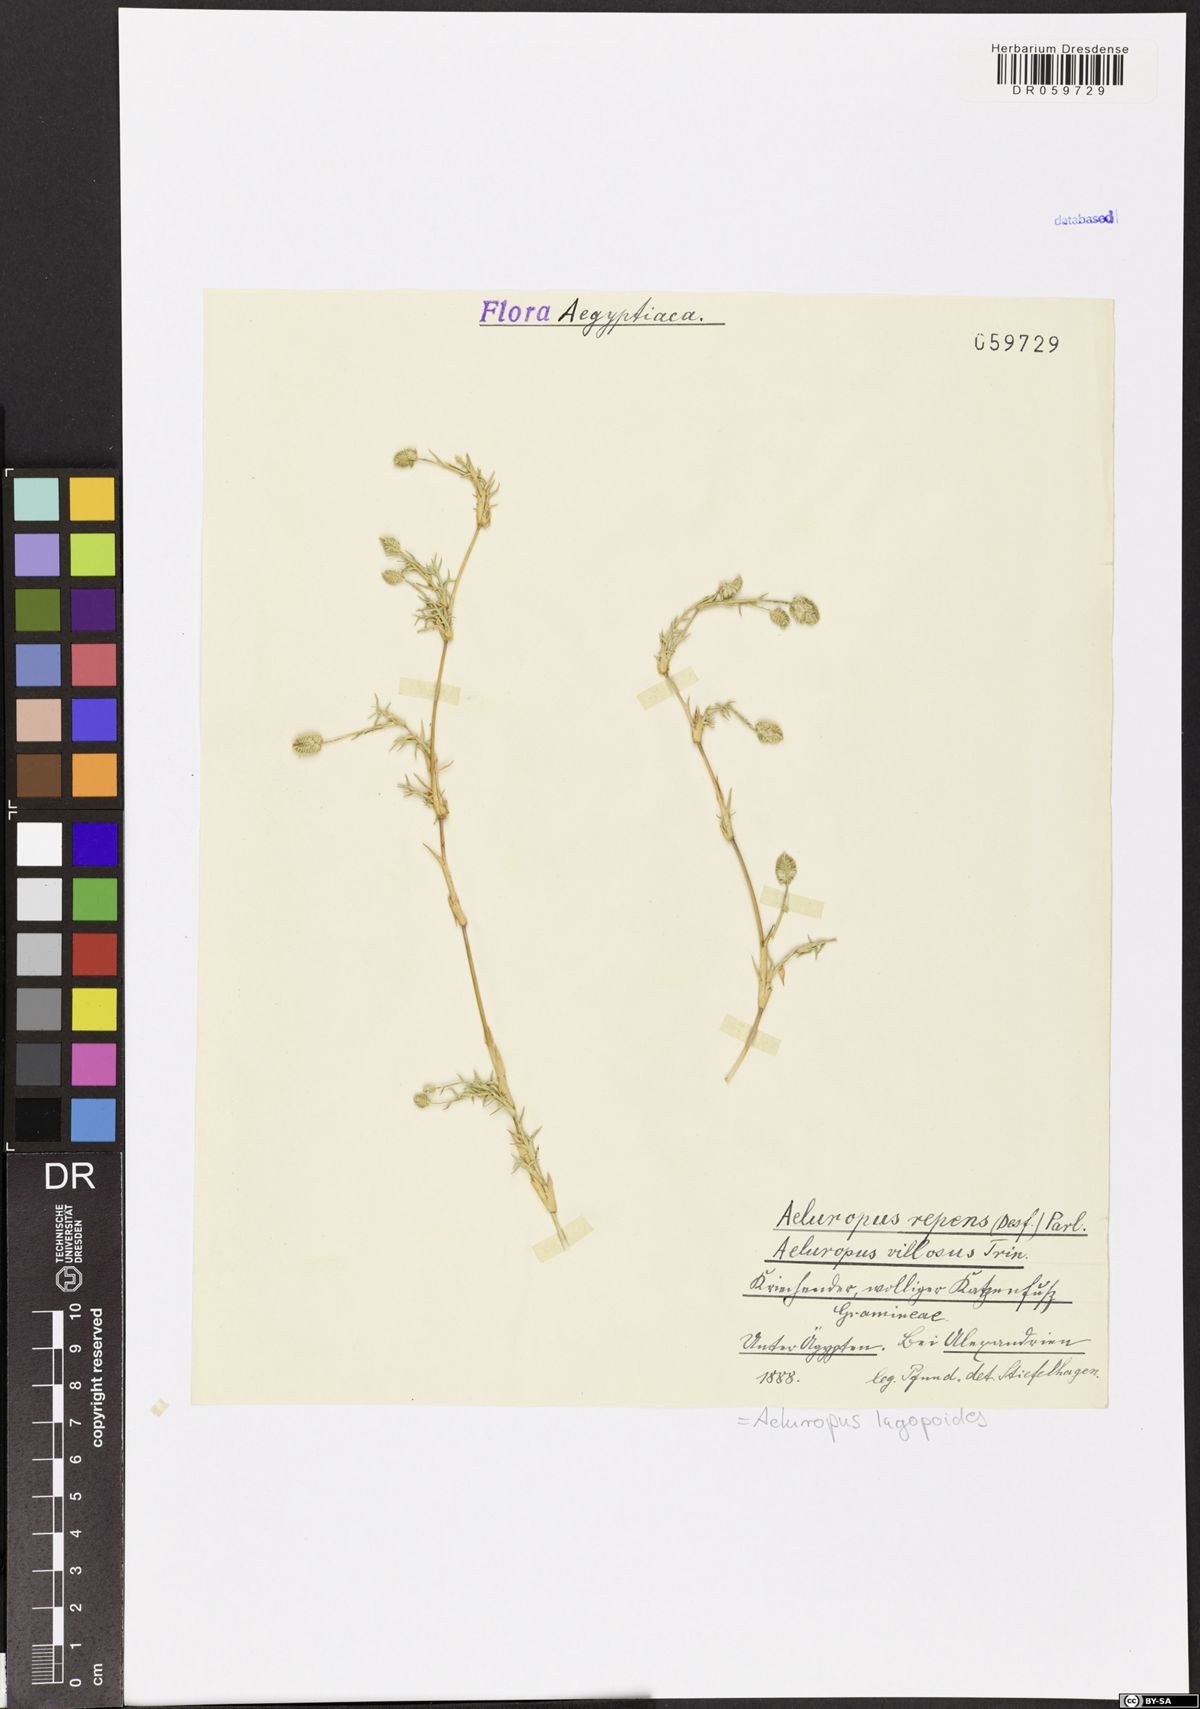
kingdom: Plantae
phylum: Tracheophyta
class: Liliopsida
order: Poales
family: Poaceae
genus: Aeluropus
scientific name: Aeluropus lagopoides
